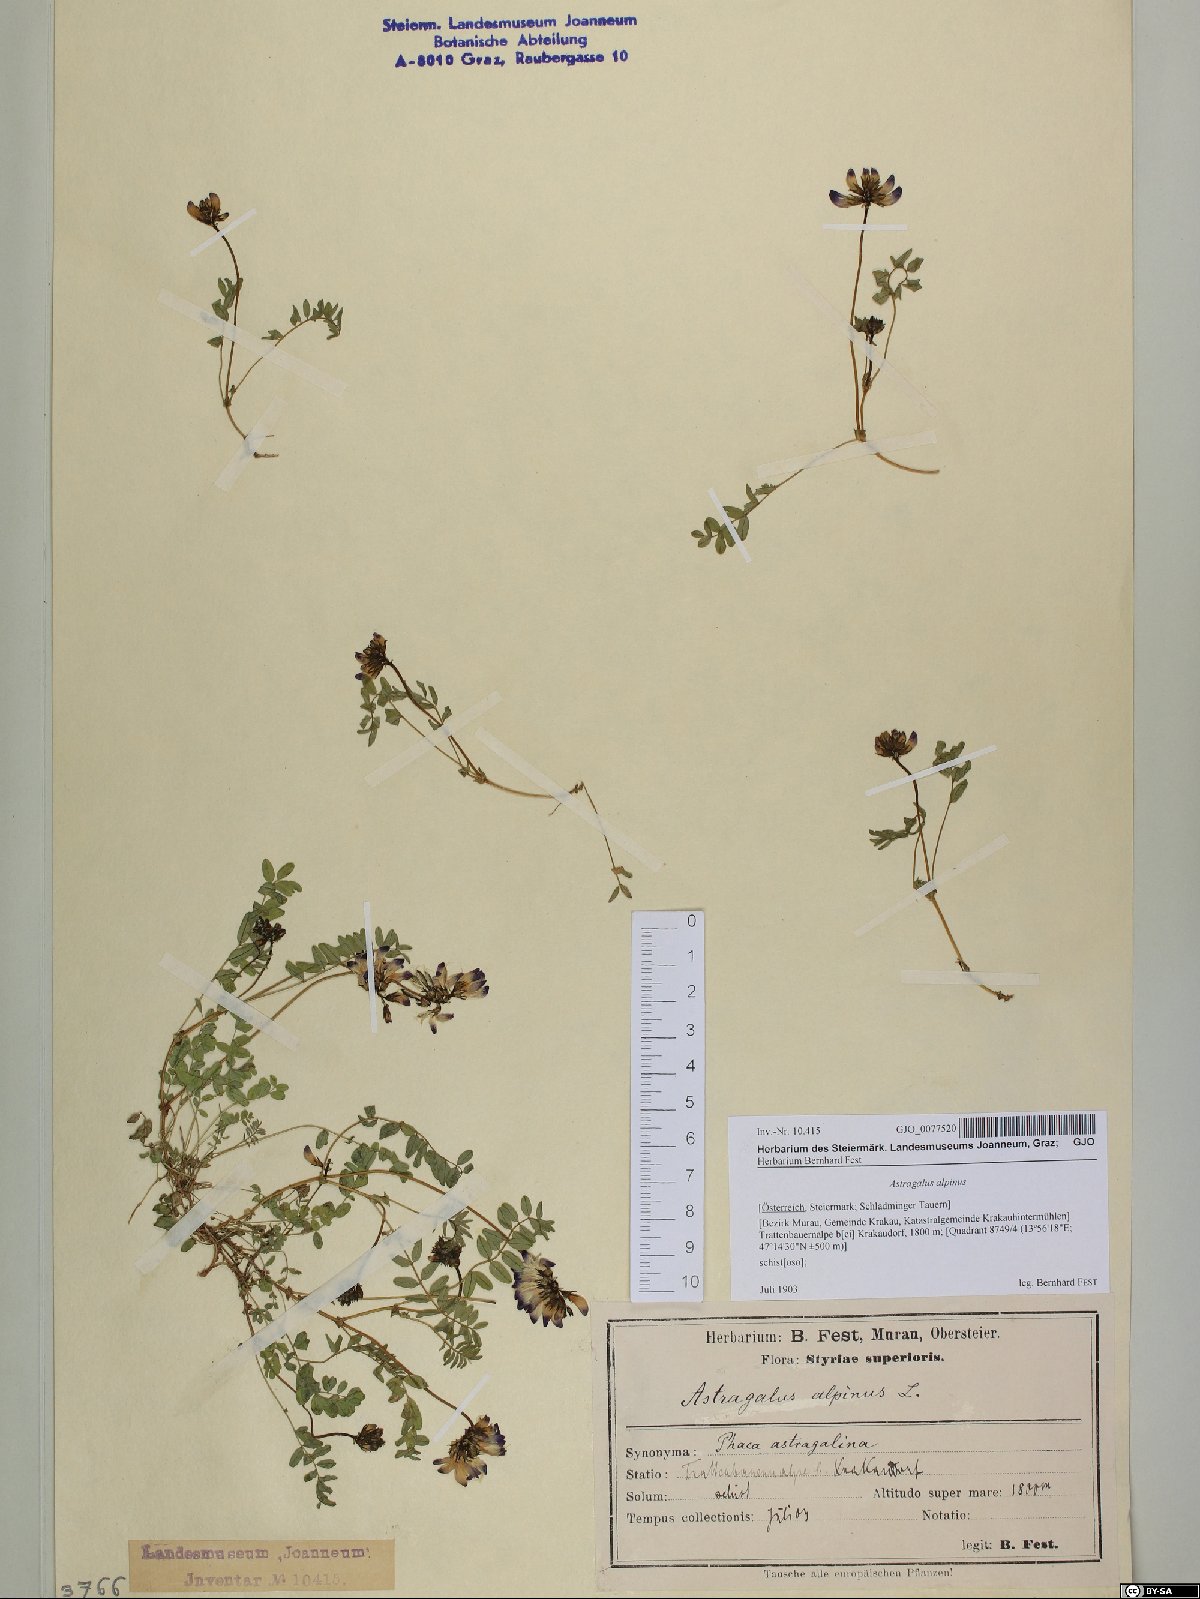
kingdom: Plantae
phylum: Tracheophyta
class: Magnoliopsida
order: Fabales
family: Fabaceae
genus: Astragalus
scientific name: Astragalus alpinus
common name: Alpine milk-vetch
